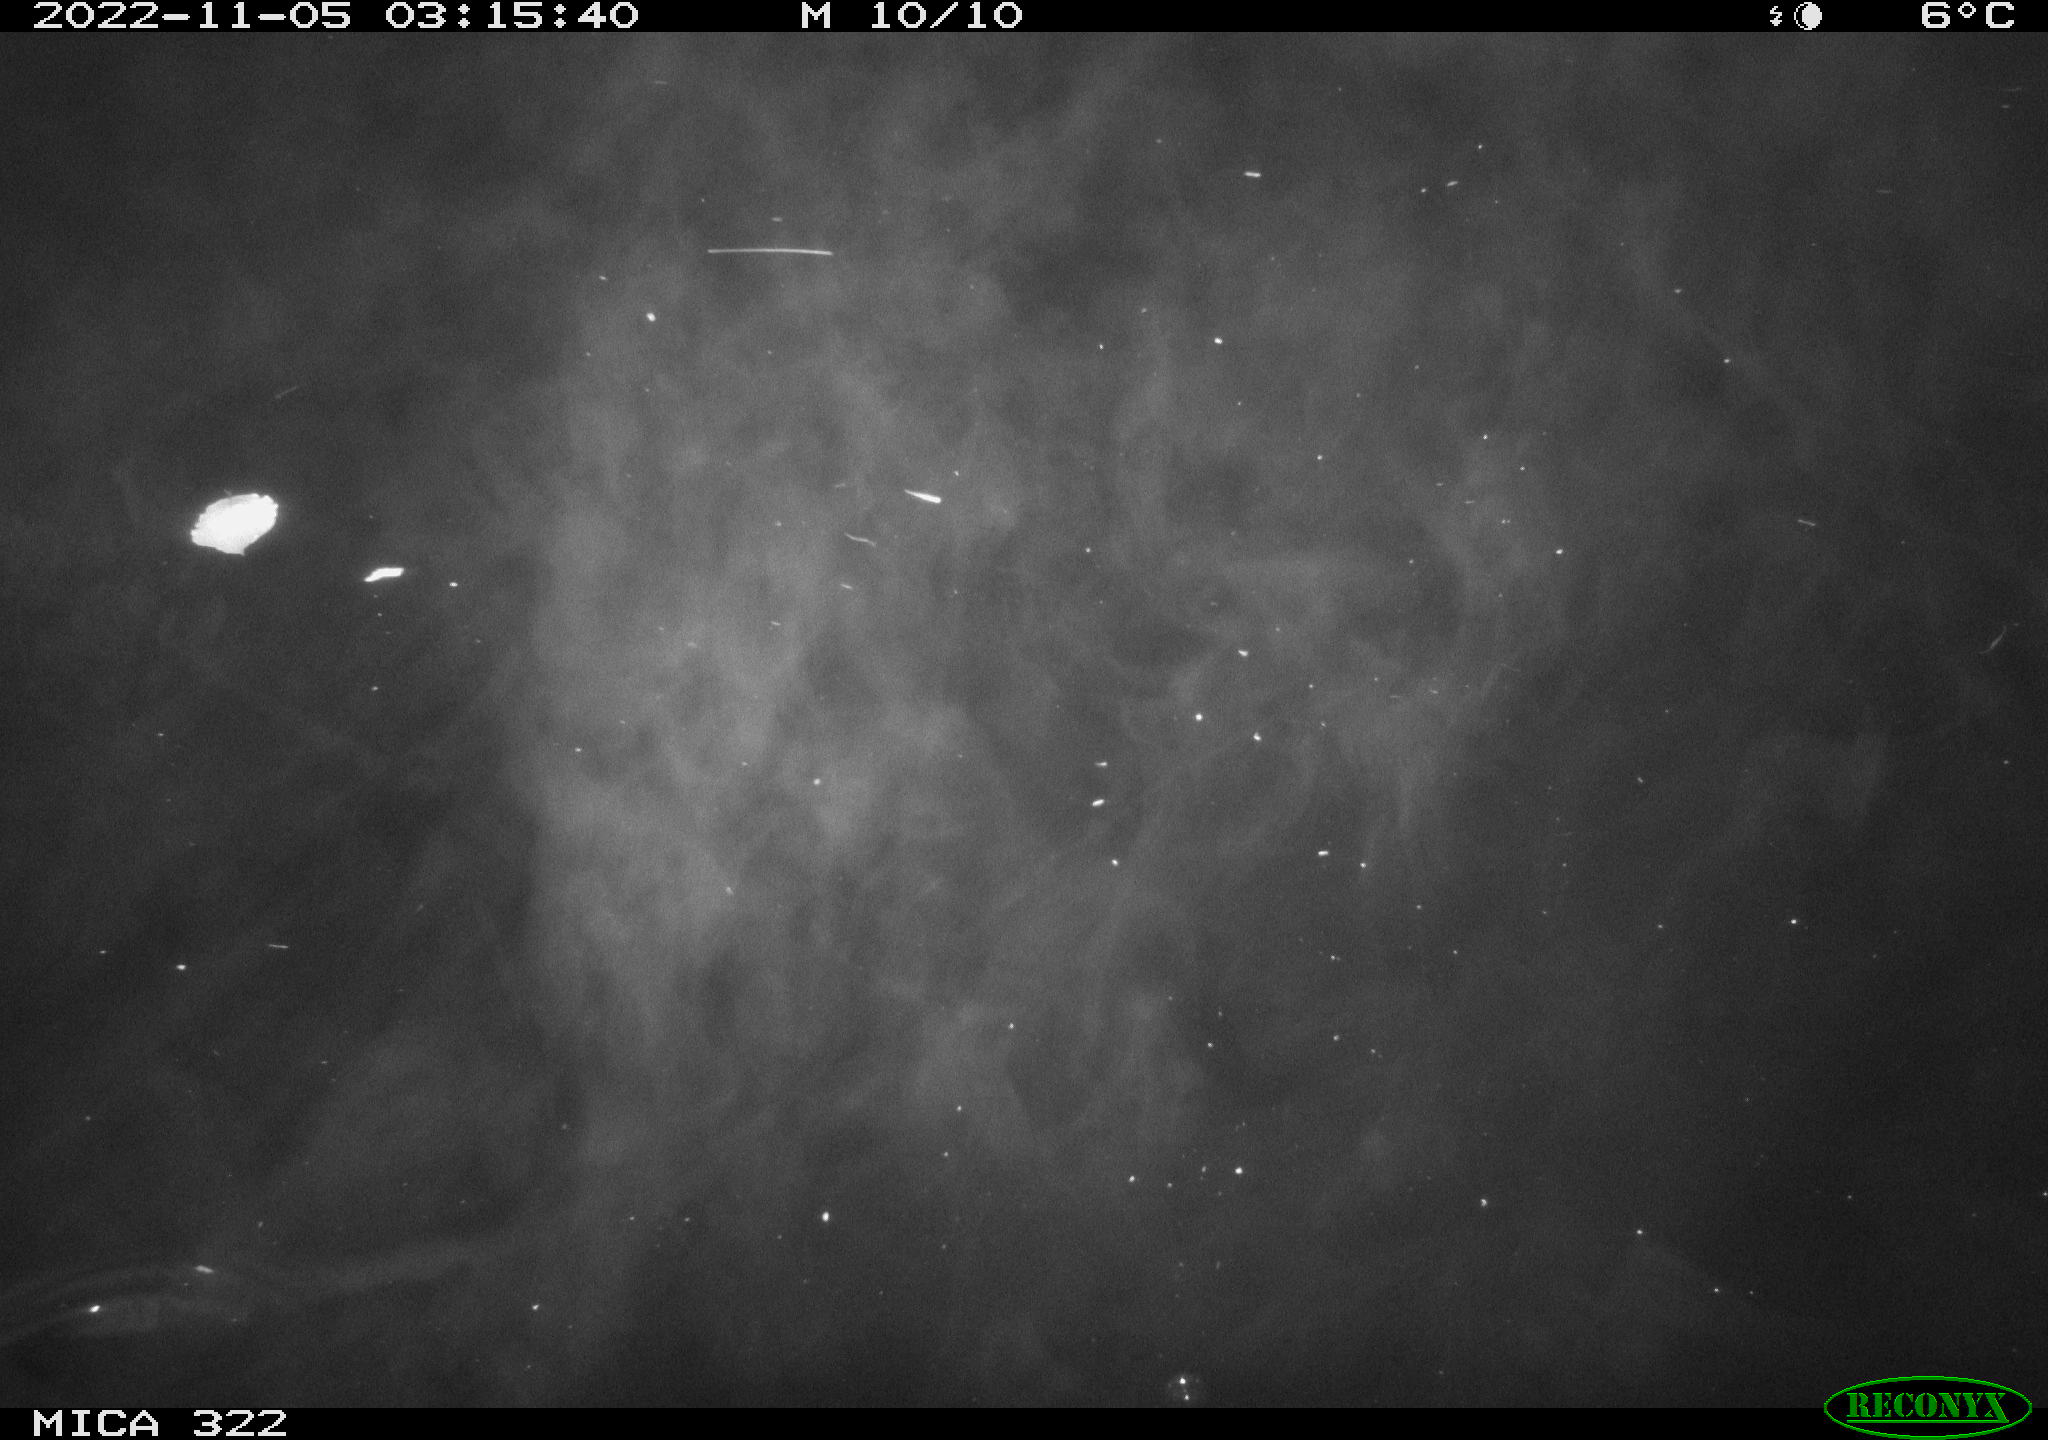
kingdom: Animalia
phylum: Chordata
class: Mammalia
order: Rodentia
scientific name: Rodentia
